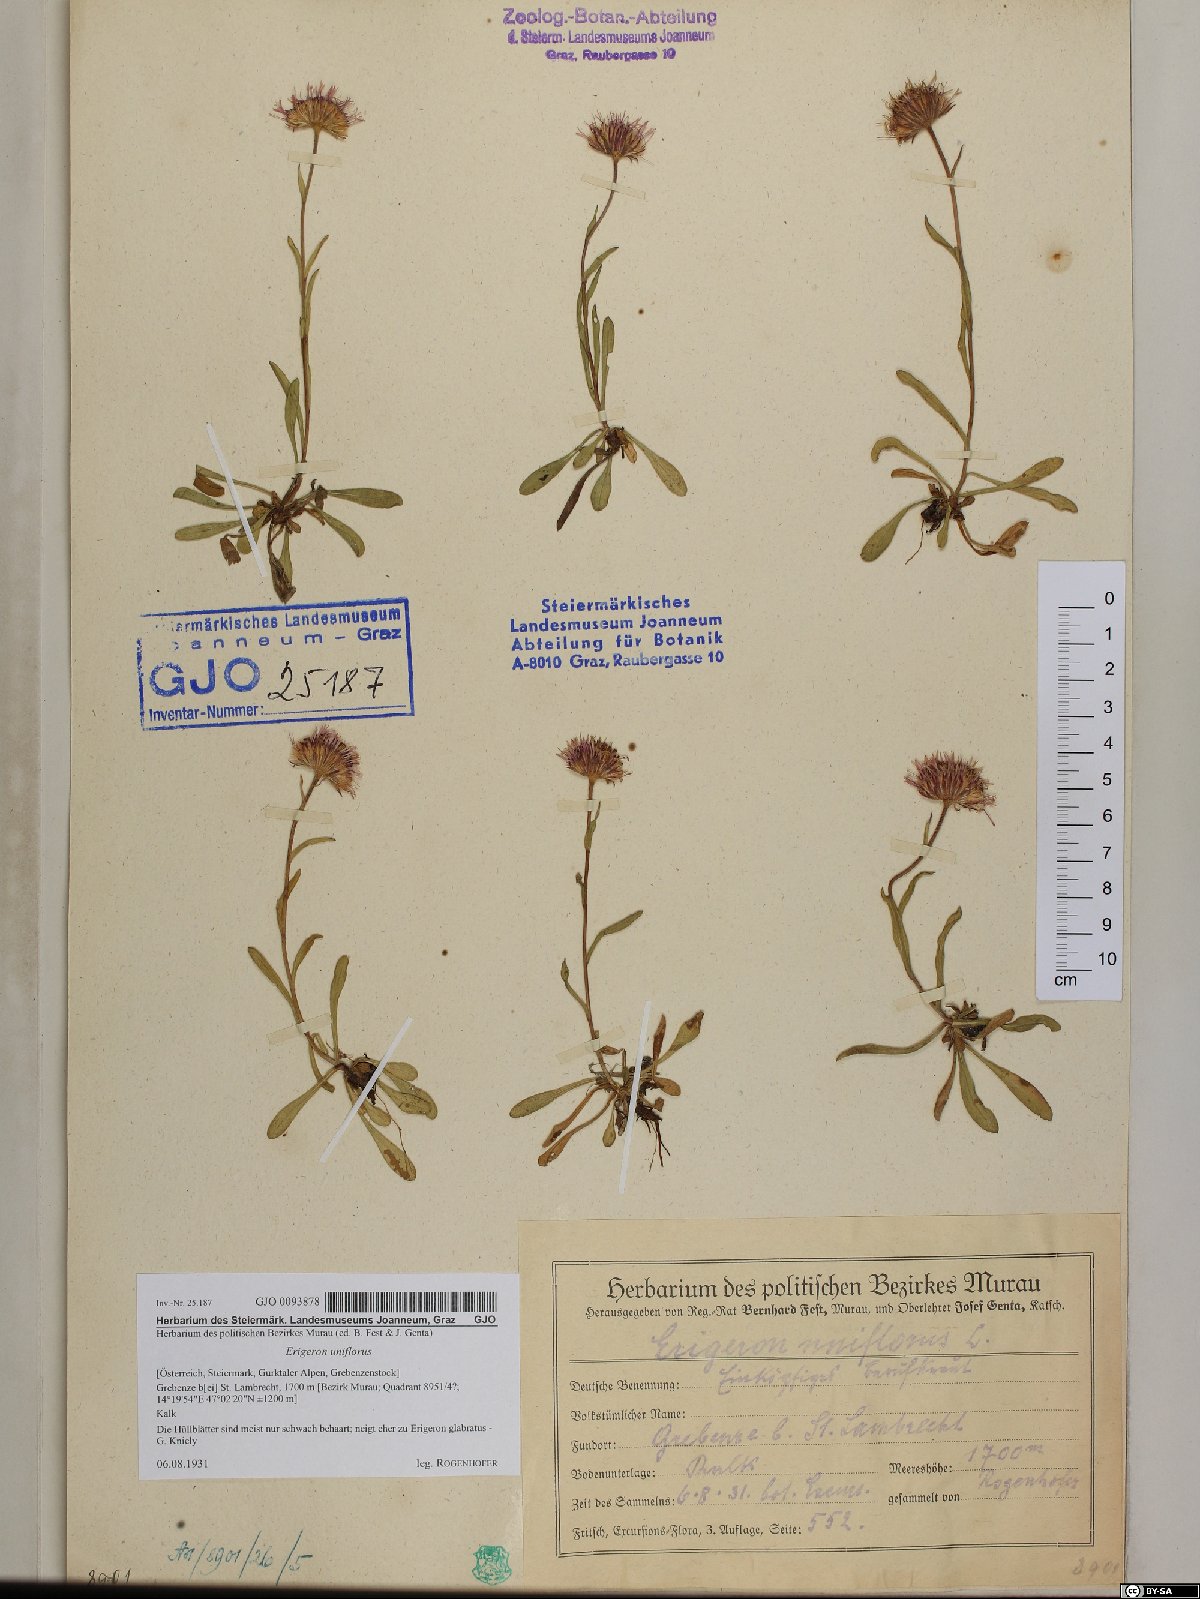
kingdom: Plantae
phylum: Tracheophyta
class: Magnoliopsida
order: Asterales
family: Asteraceae
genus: Erigeron
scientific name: Erigeron uniflorus
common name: Northern daisy
